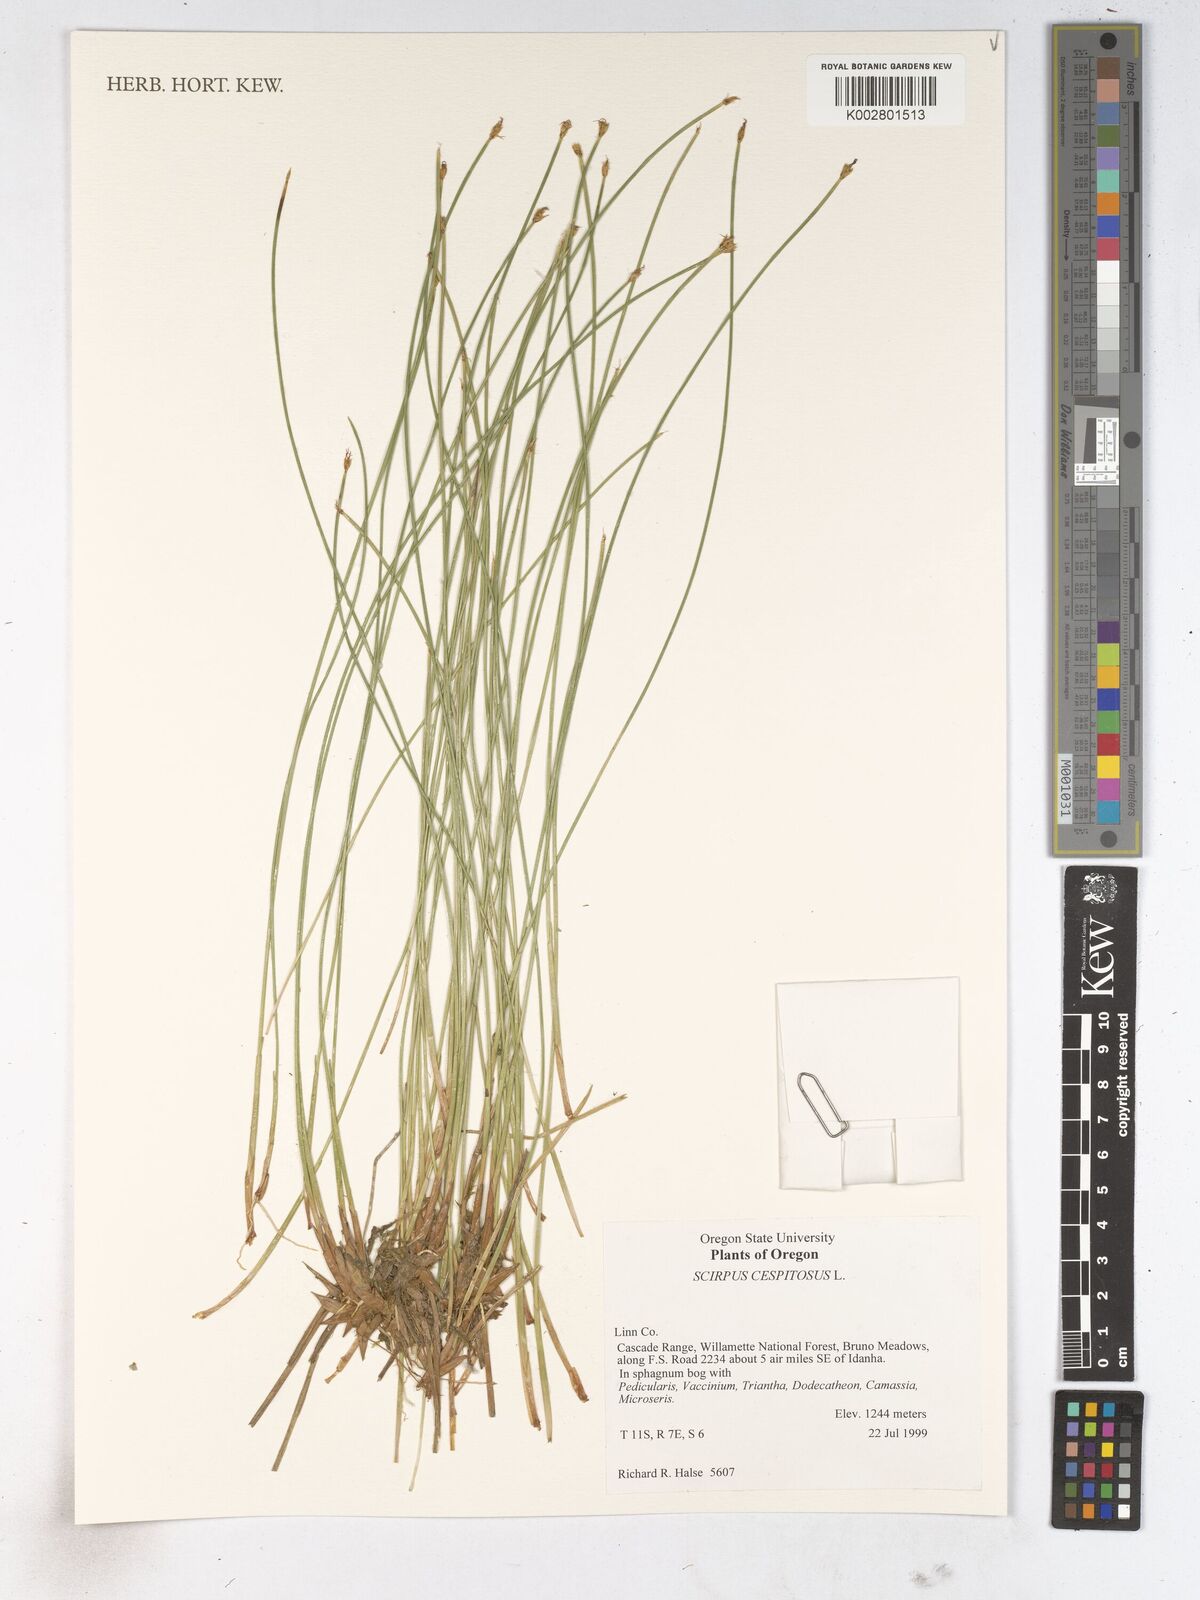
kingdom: Plantae
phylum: Tracheophyta
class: Liliopsida
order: Poales
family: Cyperaceae
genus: Trichophorum
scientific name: Trichophorum cespitosum
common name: Cespitose bulrush
